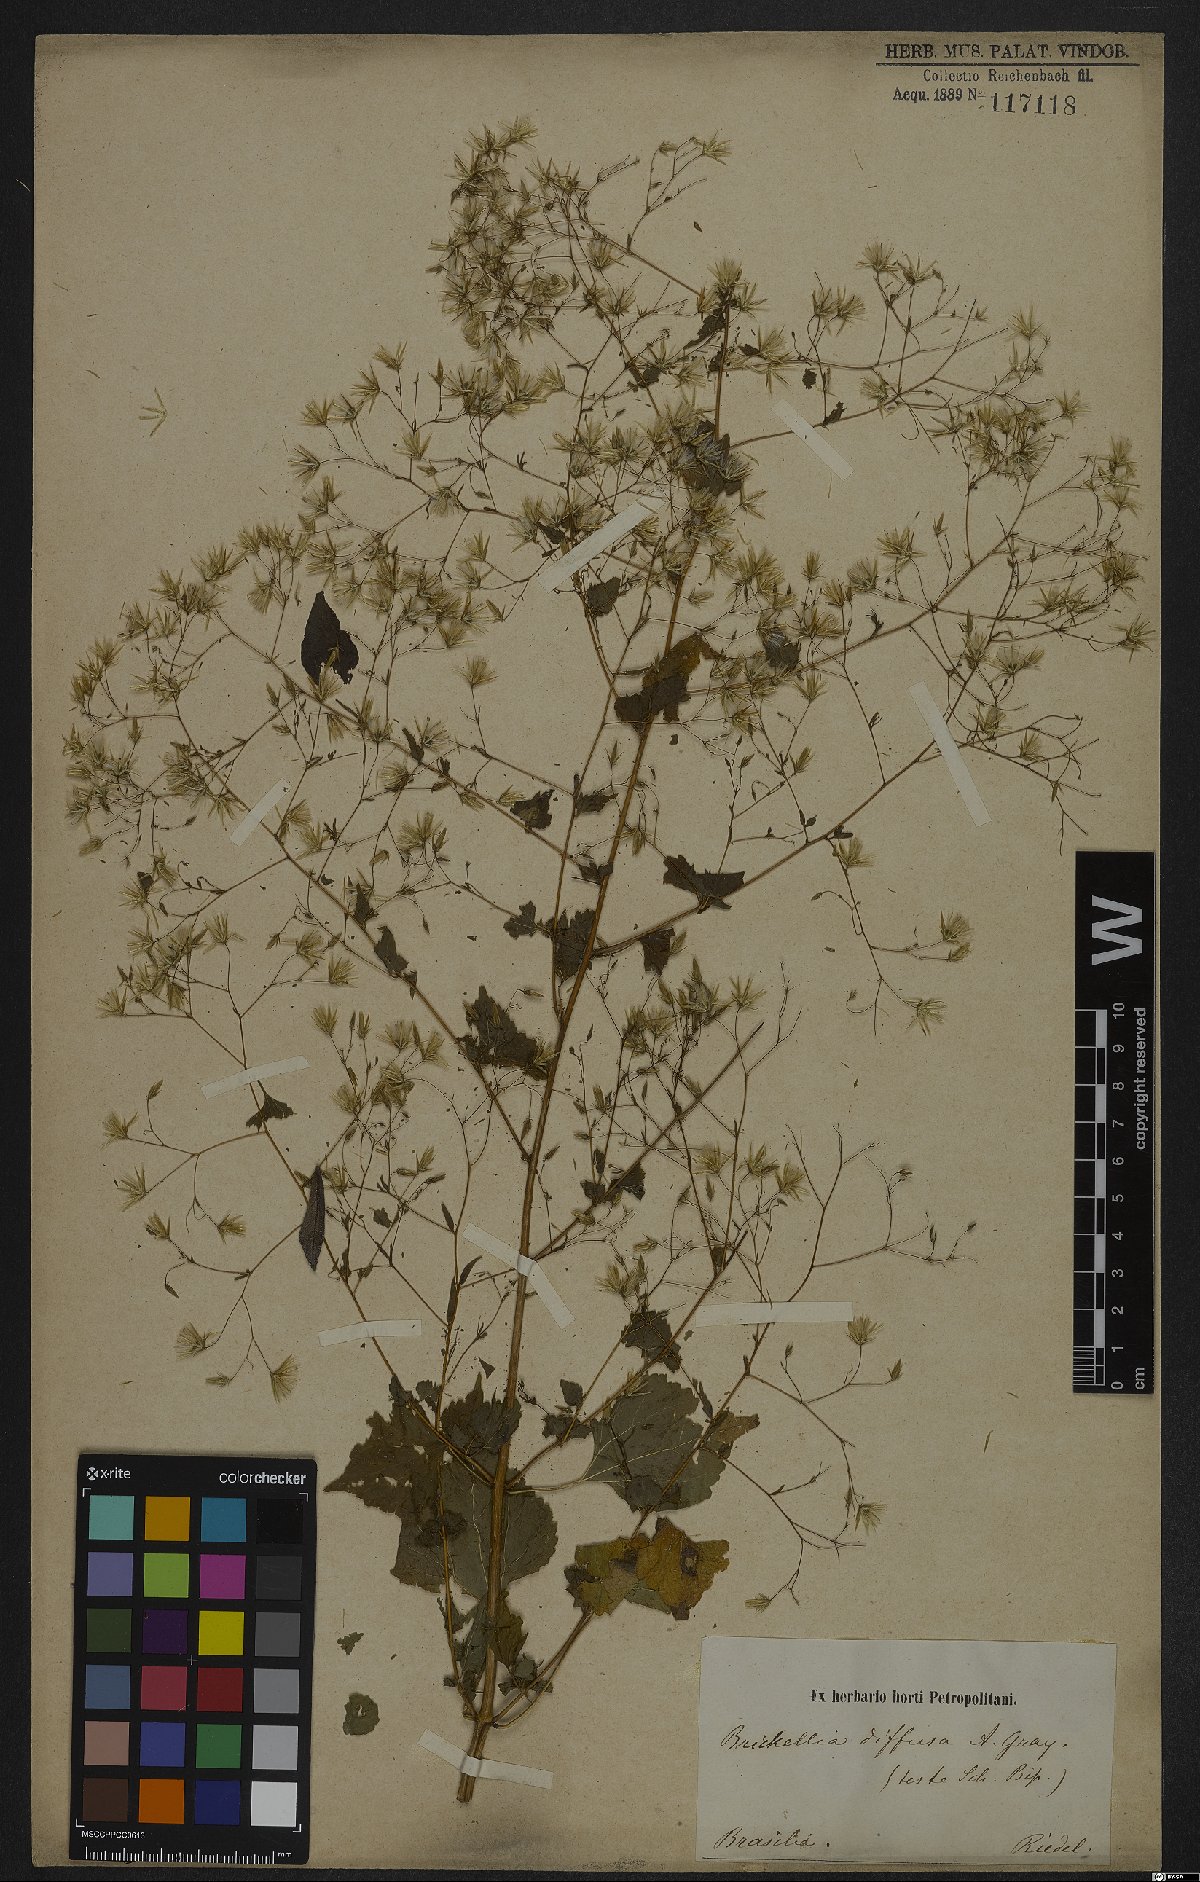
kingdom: Plantae
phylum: Tracheophyta
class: Magnoliopsida
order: Asterales
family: Asteraceae
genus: Brickellia
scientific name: Brickellia diffusa
